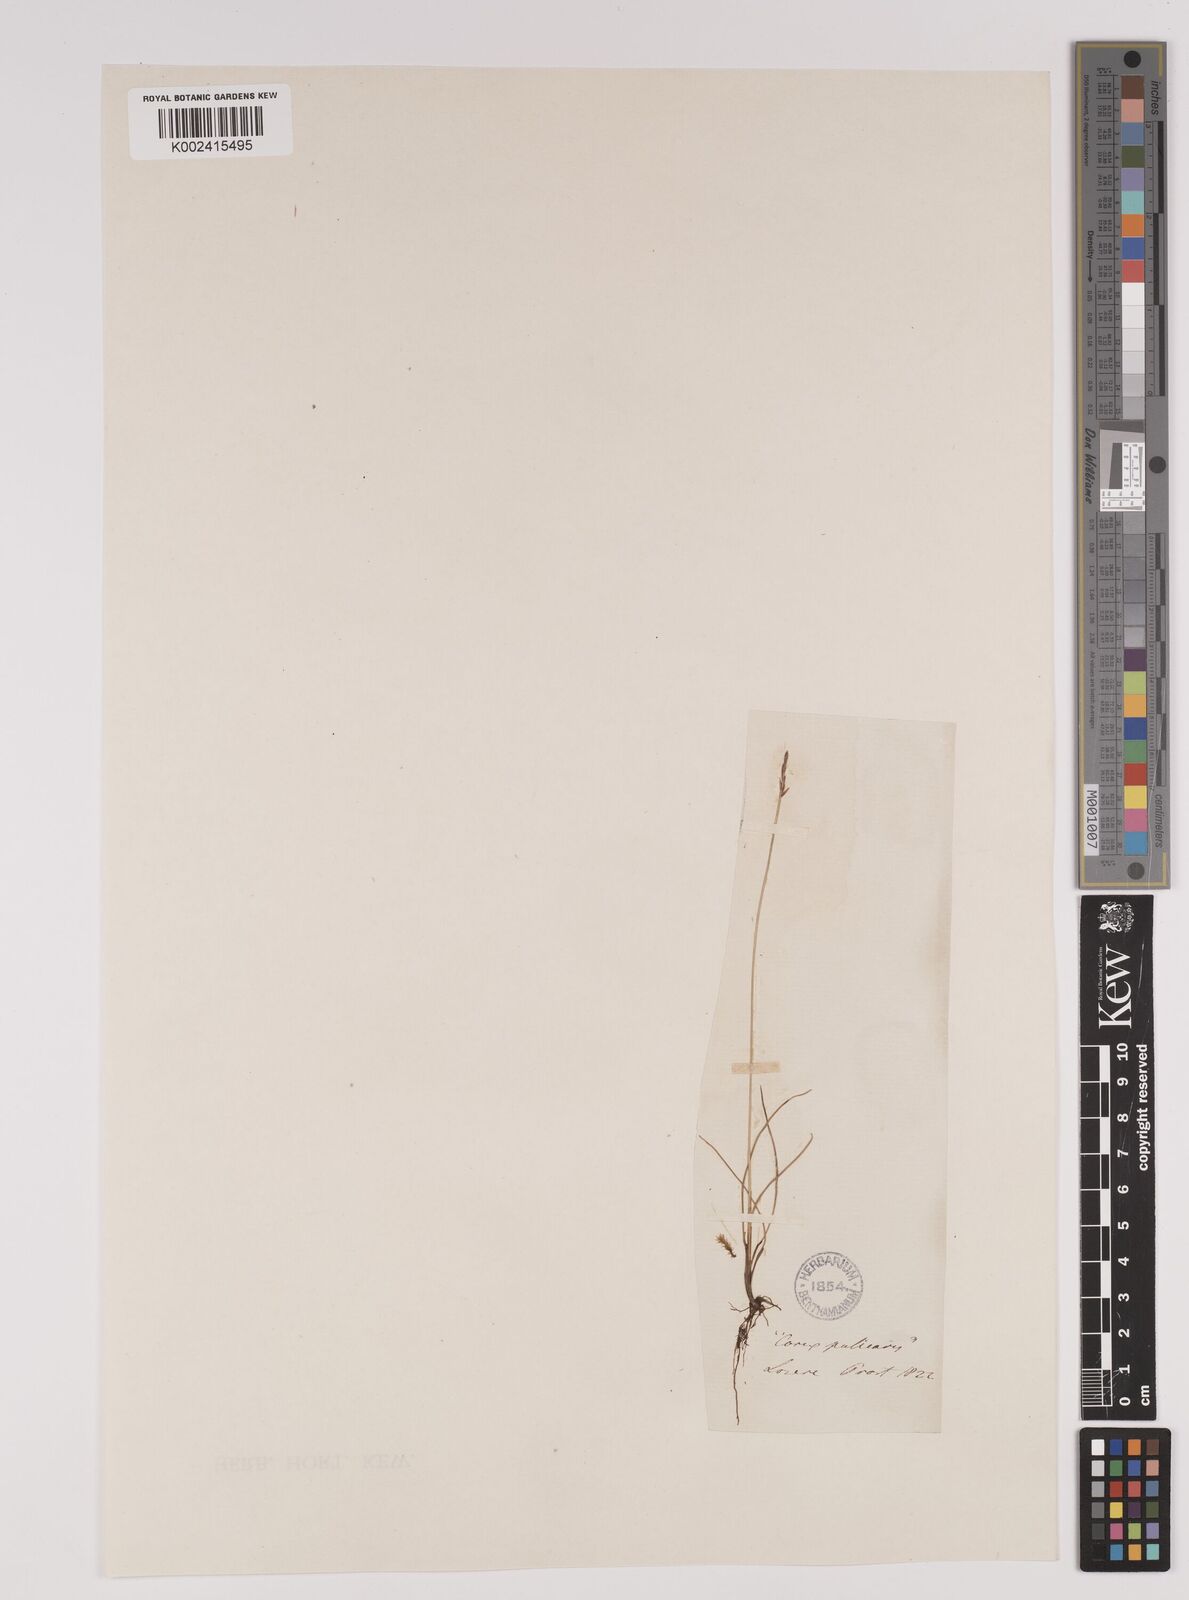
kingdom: Plantae
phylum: Tracheophyta
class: Liliopsida
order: Poales
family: Cyperaceae
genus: Carex
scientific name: Carex pulicaris
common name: Flea sedge
